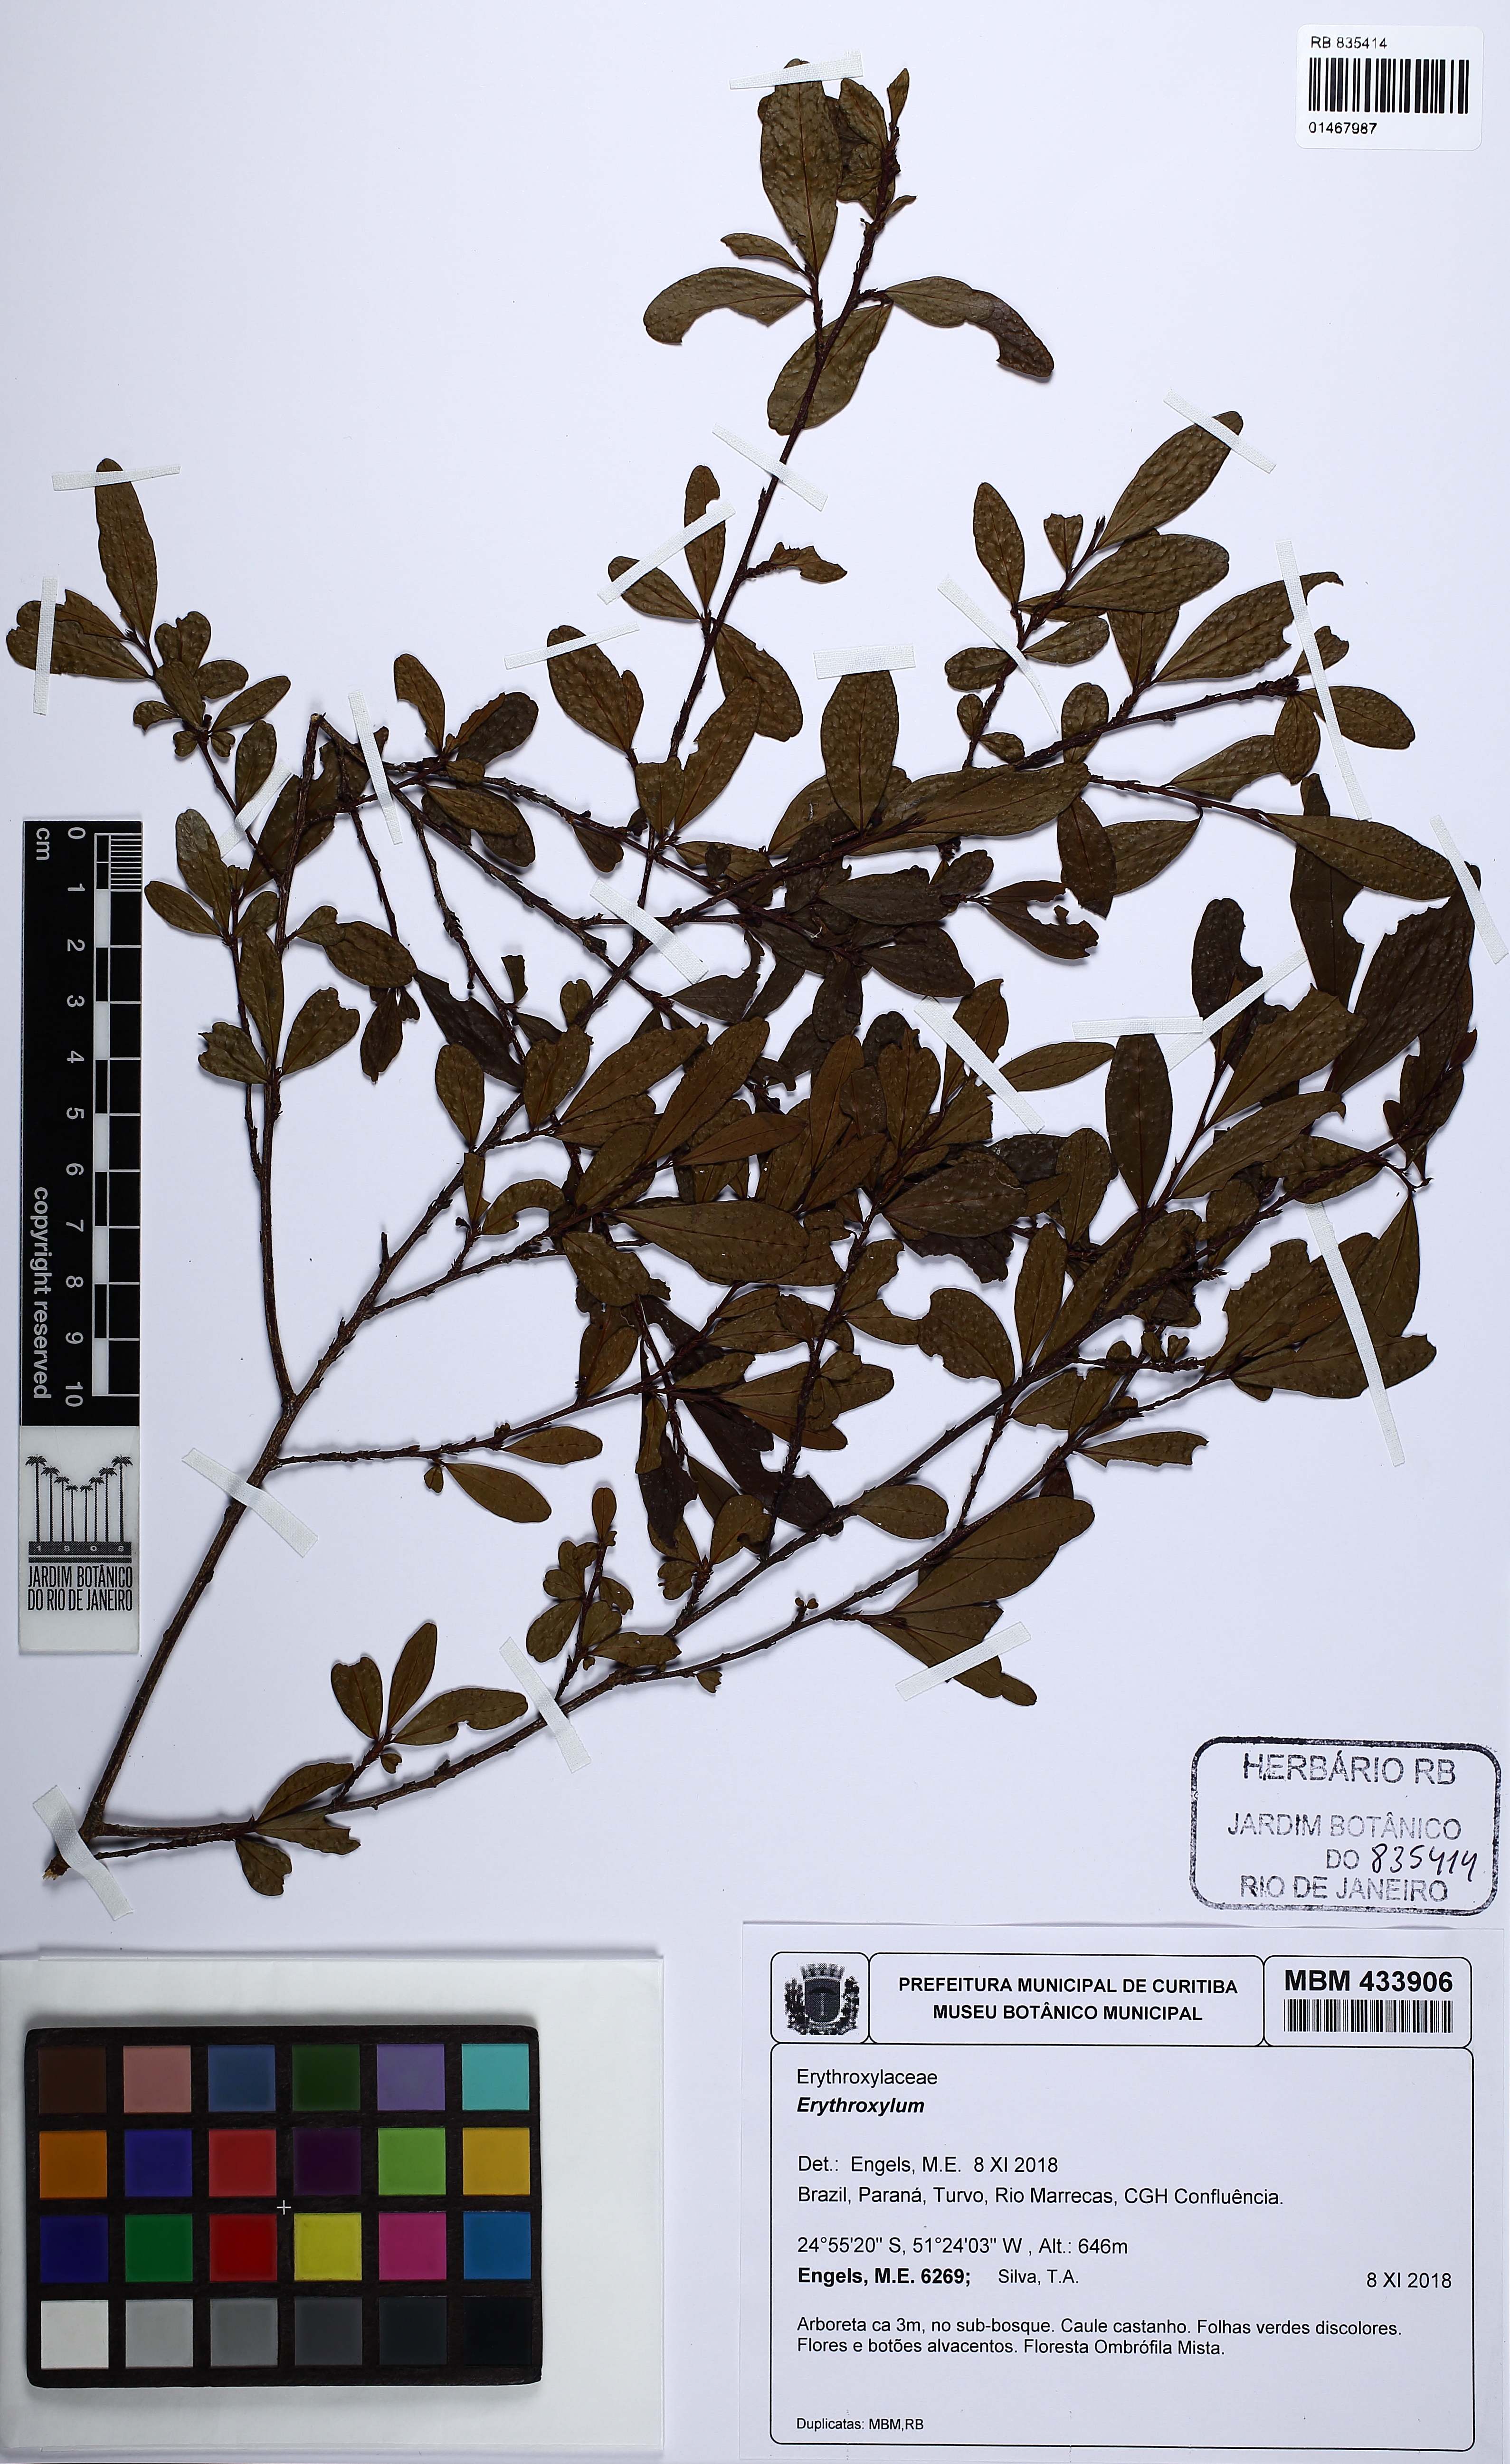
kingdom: Plantae
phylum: Tracheophyta
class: Magnoliopsida
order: Malpighiales
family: Erythroxylaceae
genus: Erythroxylum
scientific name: Erythroxylum
